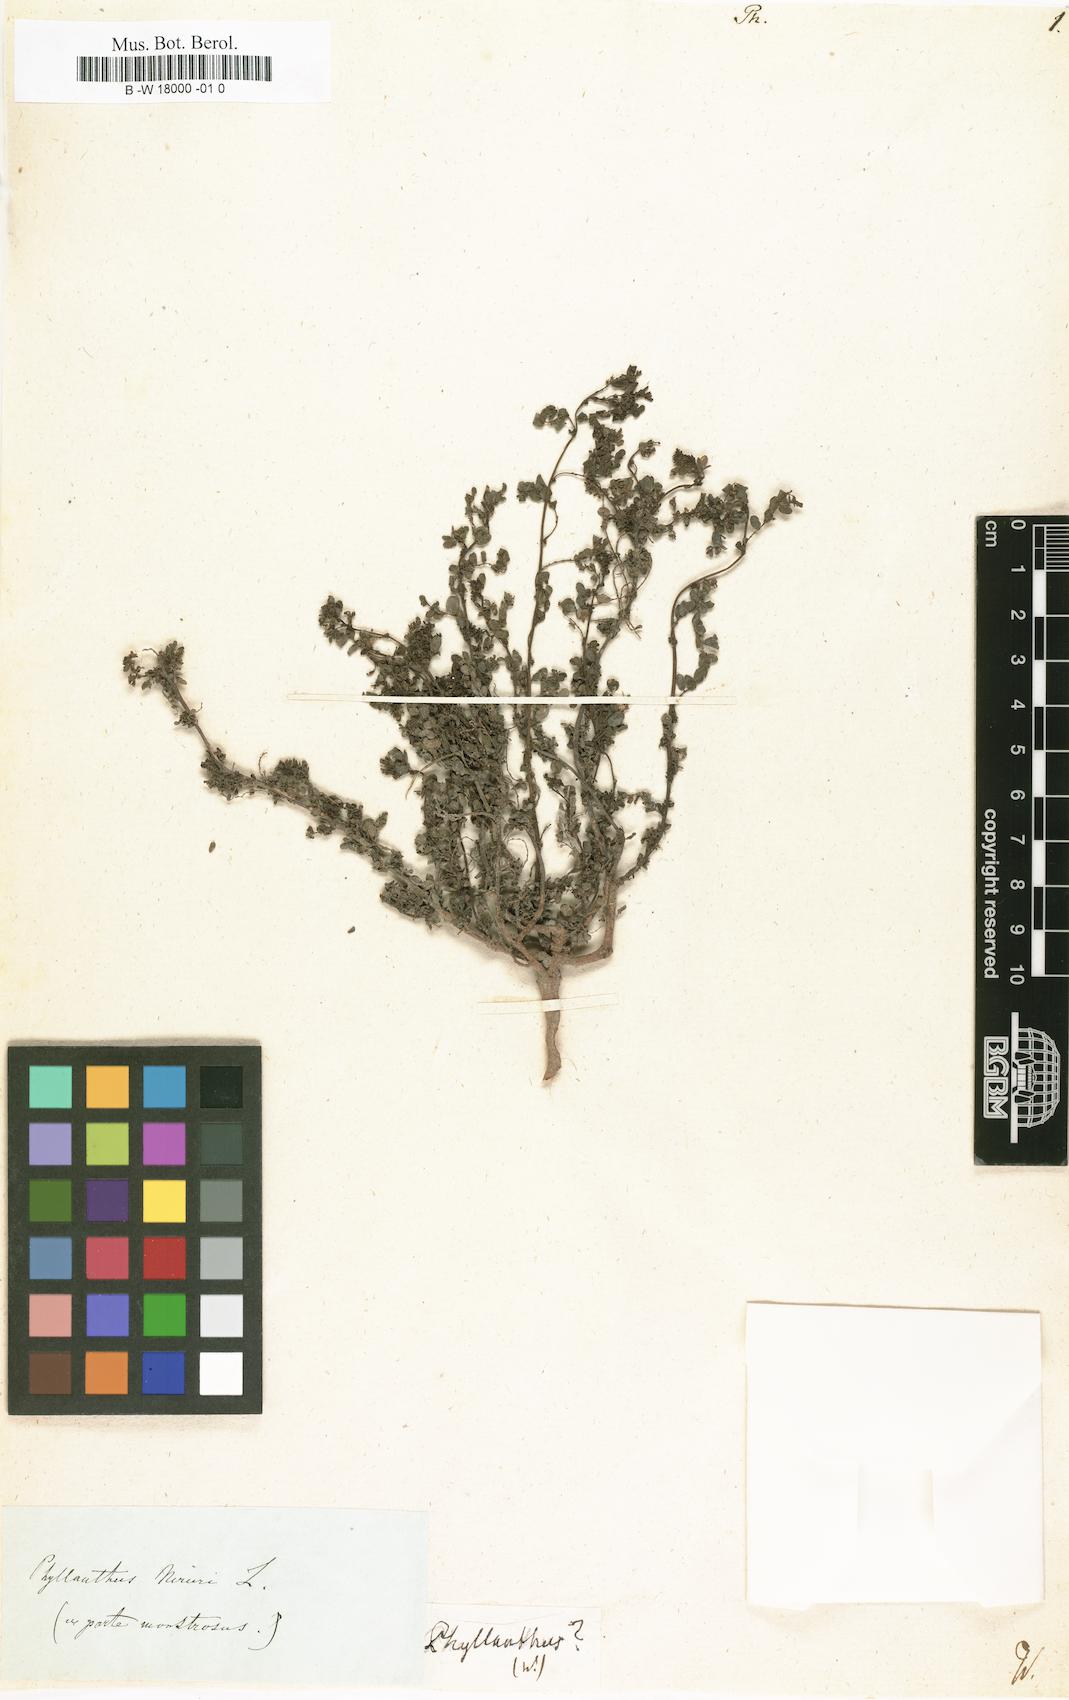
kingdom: Plantae
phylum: Tracheophyta
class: Magnoliopsida
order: Malpighiales
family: Phyllanthaceae
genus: Phyllanthus
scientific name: Phyllanthus
